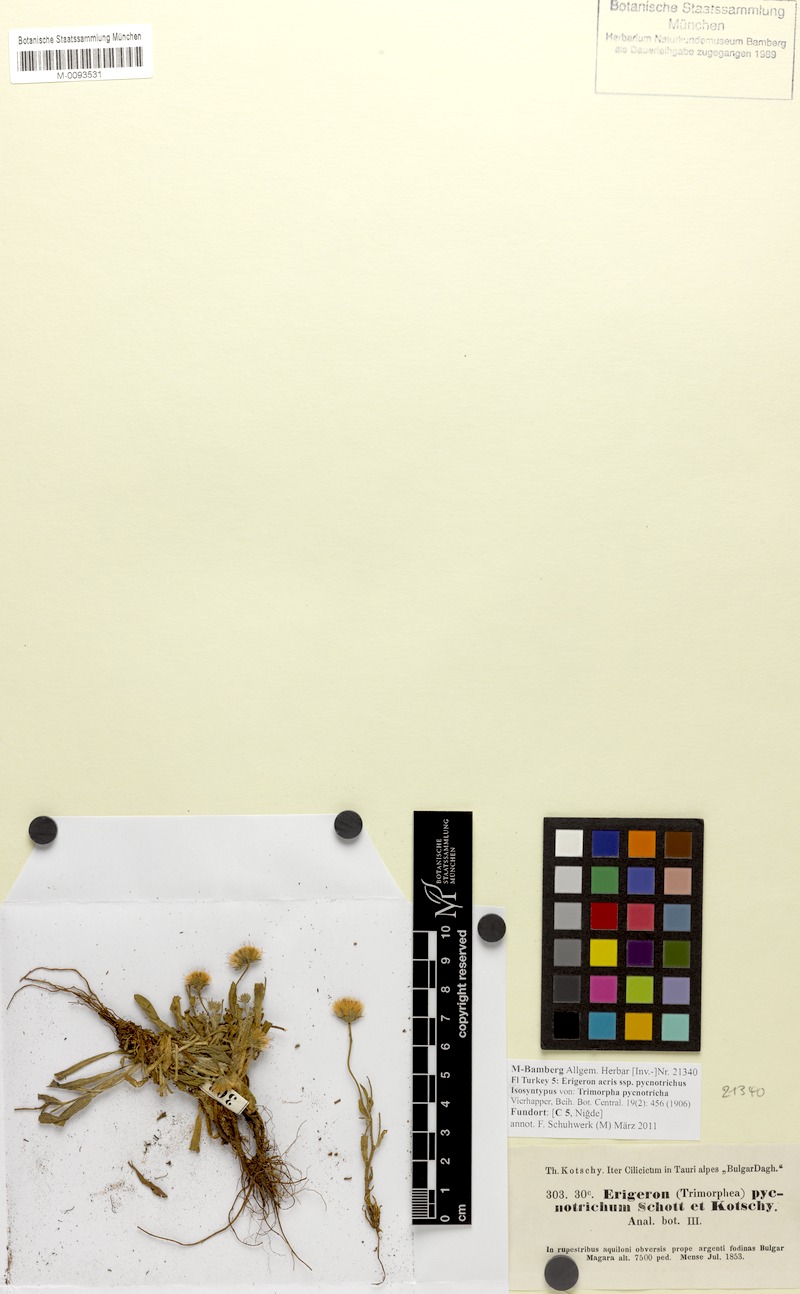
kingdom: Plantae
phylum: Tracheophyta
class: Magnoliopsida
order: Asterales
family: Asteraceae
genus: Erigeron
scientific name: Erigeron annuus
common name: Tall fleabane
